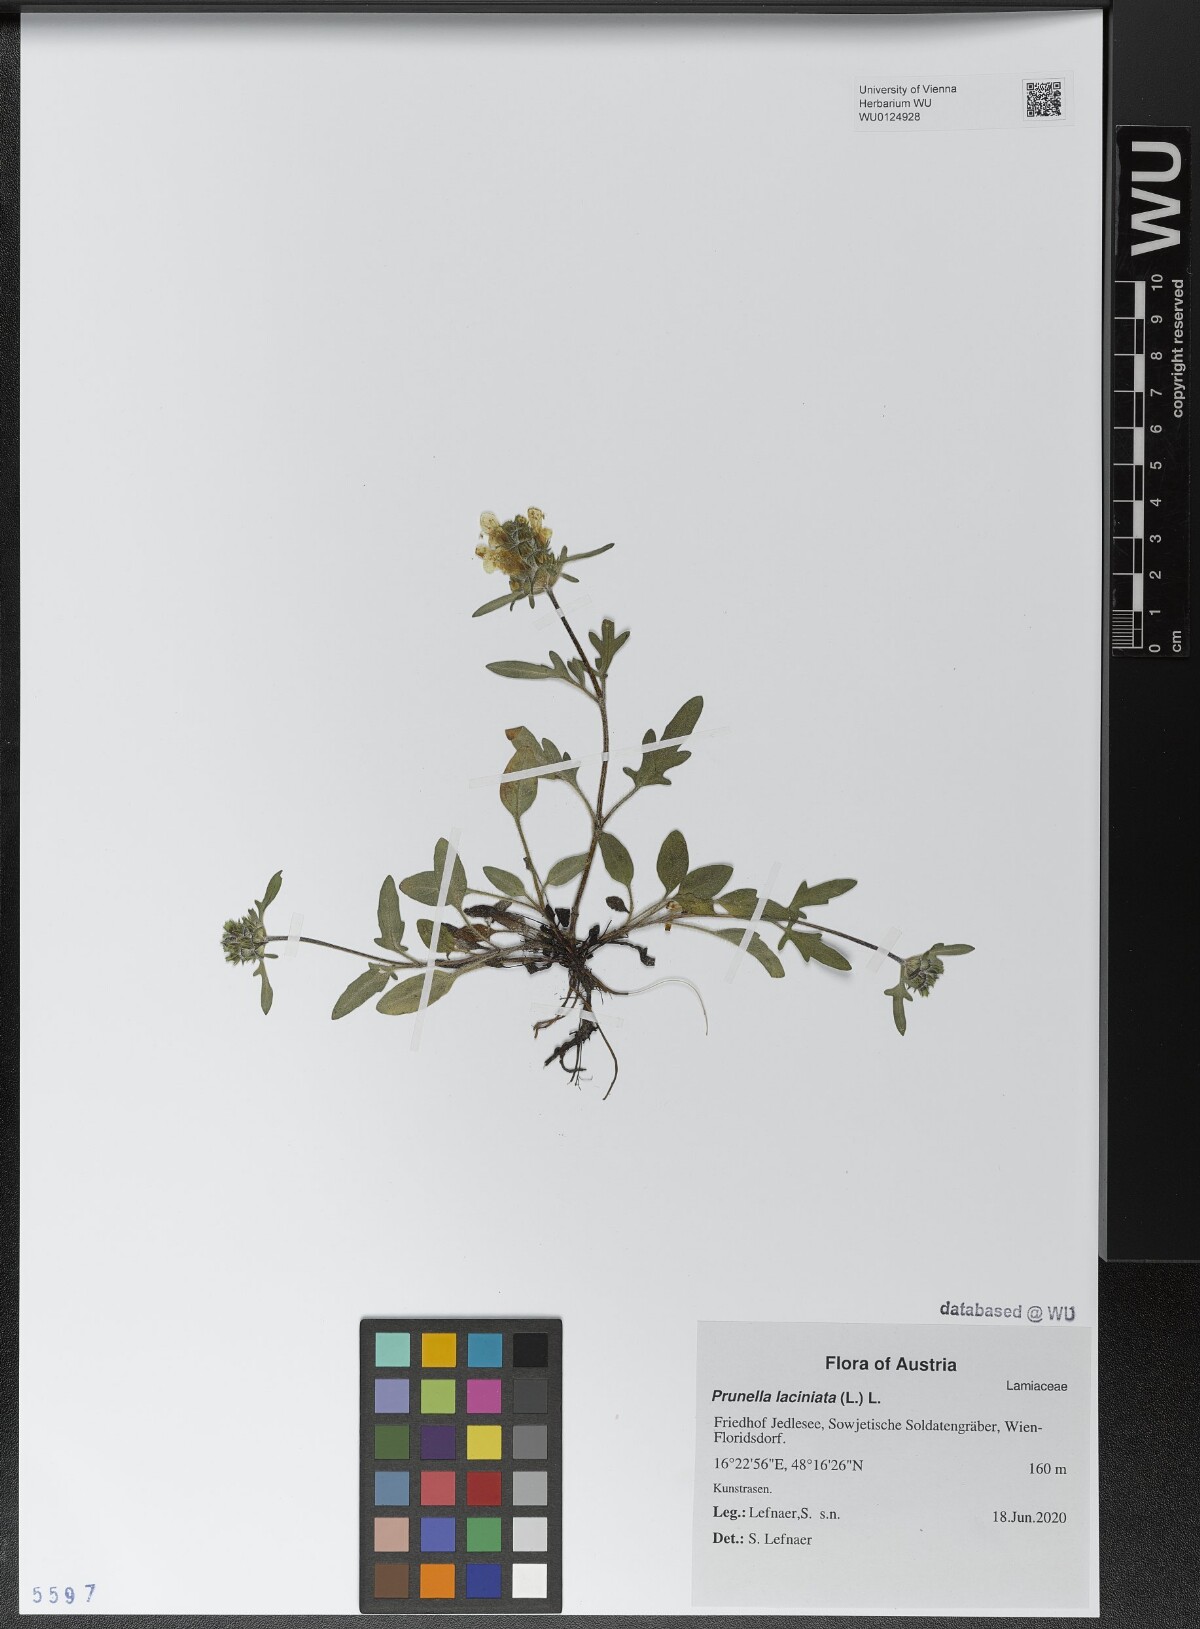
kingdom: Plantae
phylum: Tracheophyta
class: Magnoliopsida
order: Lamiales
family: Lamiaceae
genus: Prunella
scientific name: Prunella laciniata
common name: Cut-leaved selfheal
